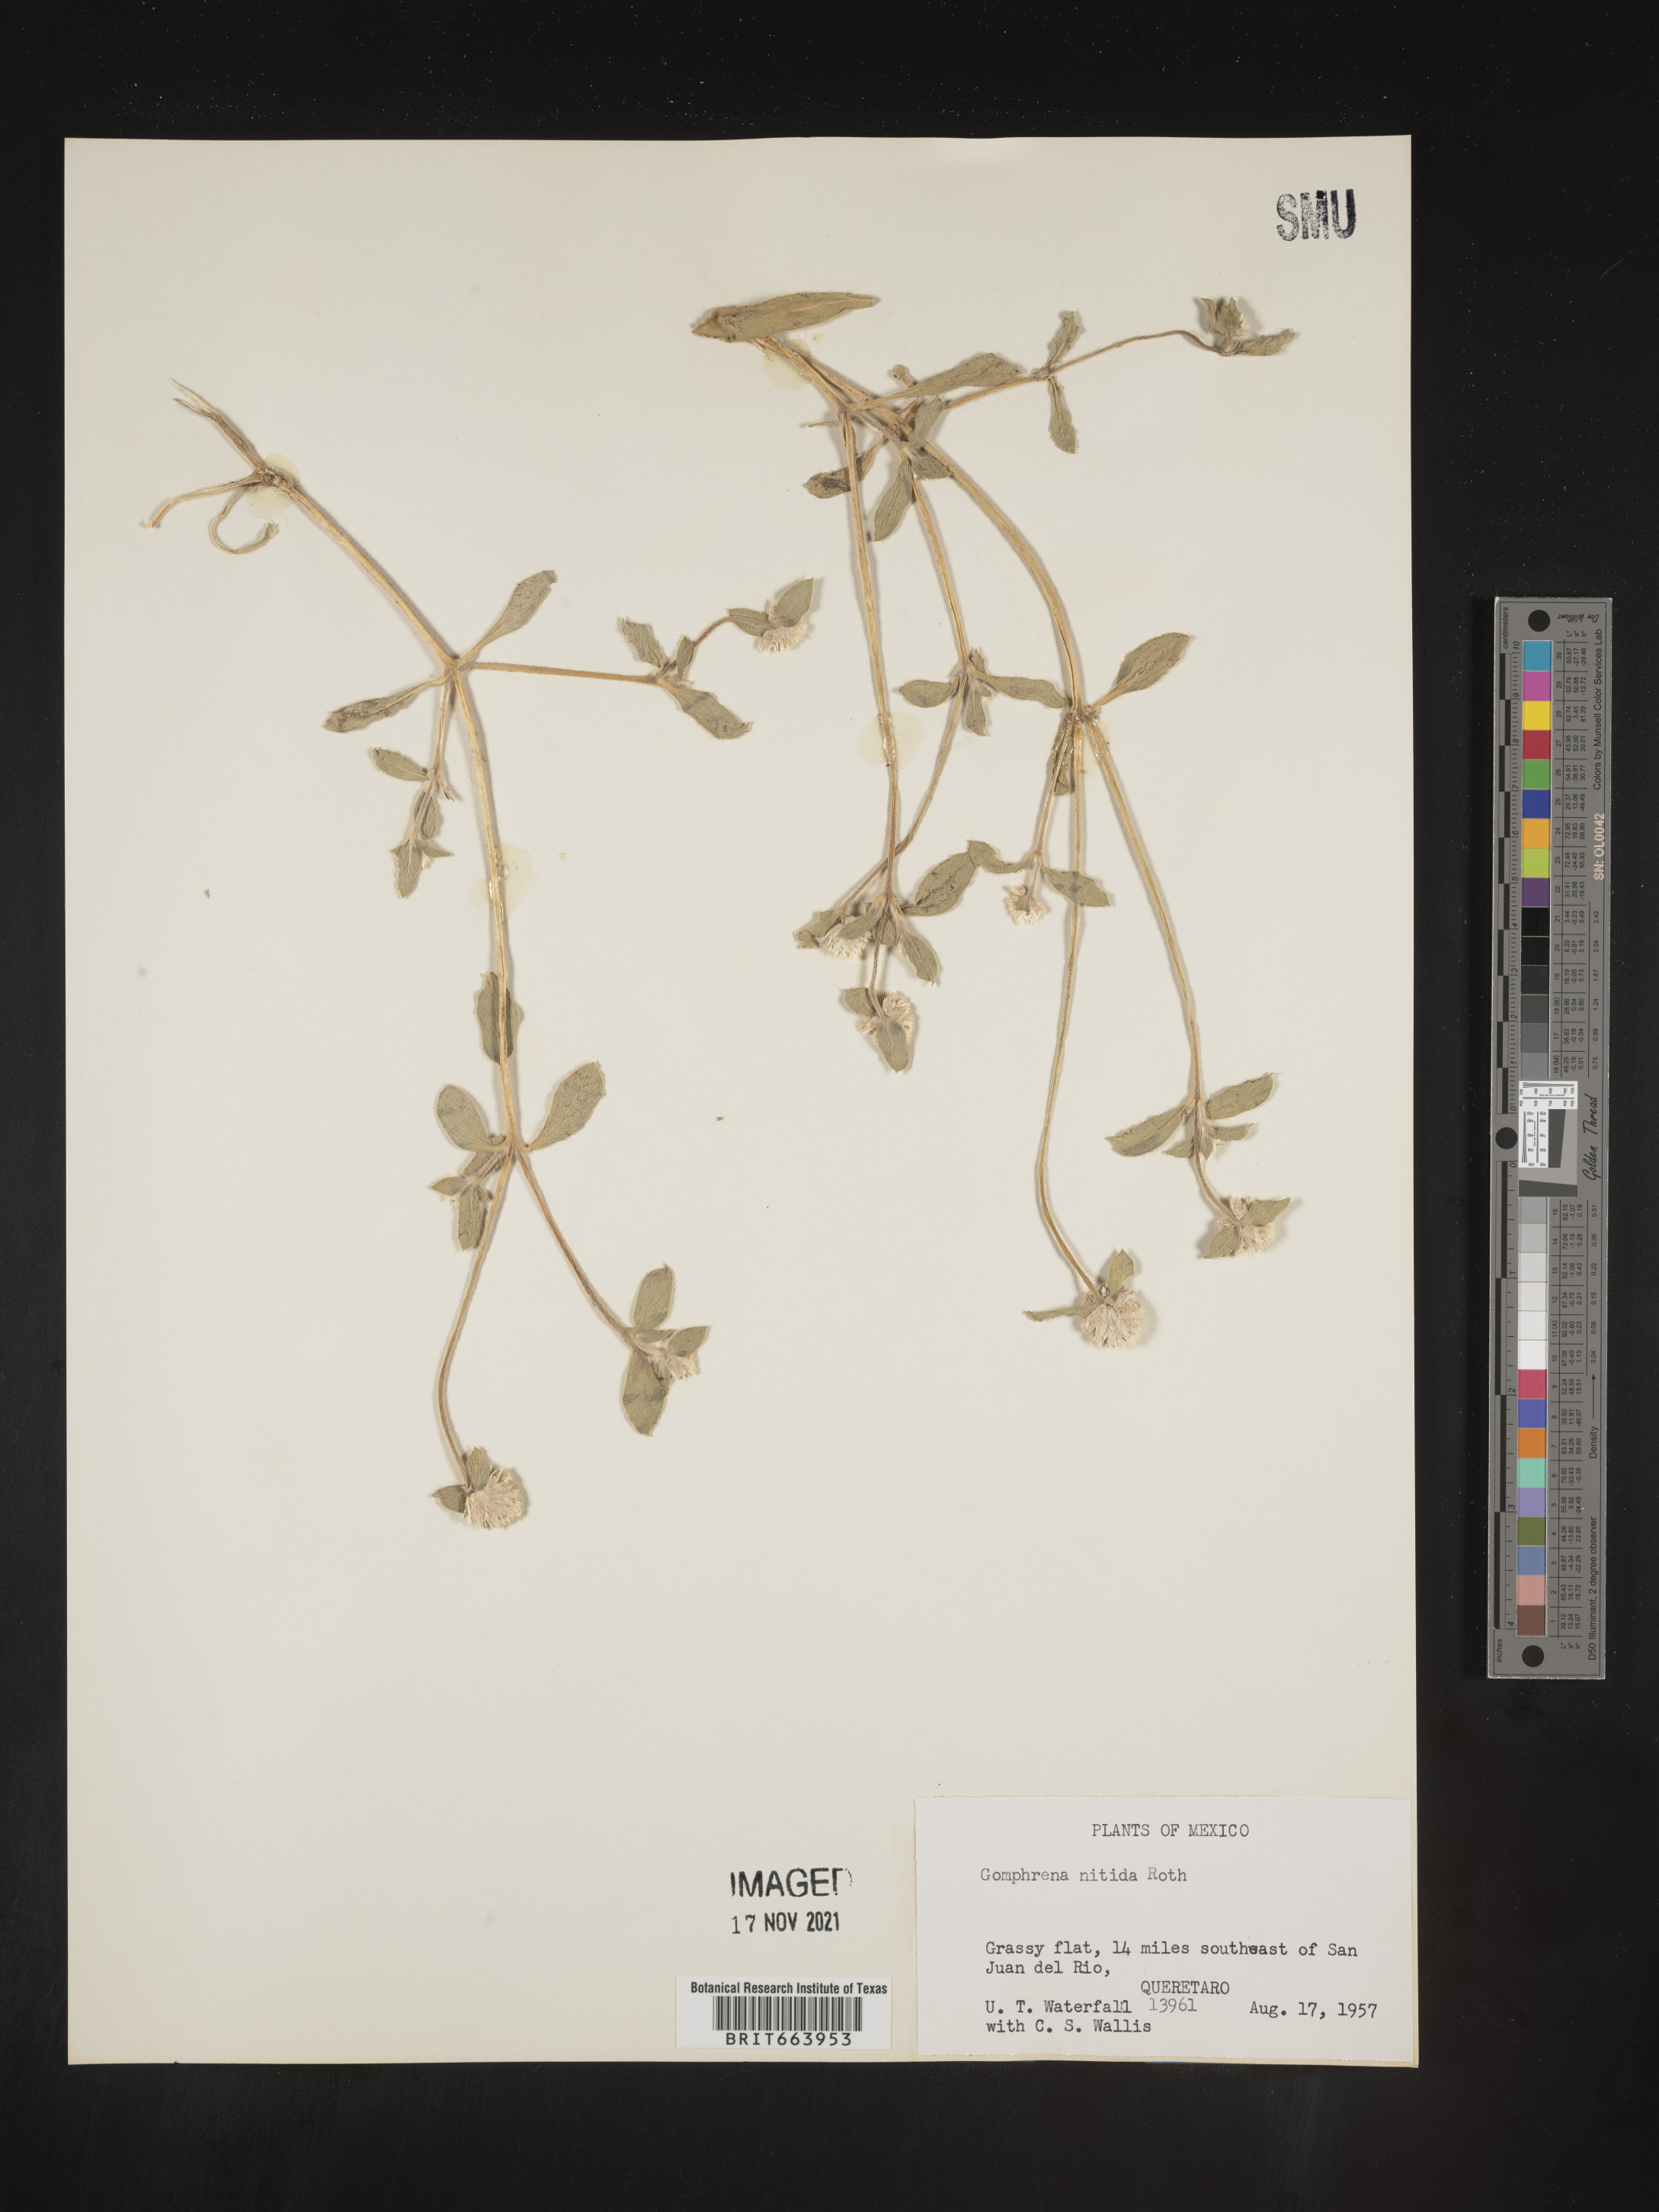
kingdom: Plantae
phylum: Tracheophyta
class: Magnoliopsida
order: Caryophyllales
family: Amaranthaceae
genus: Gomphrena
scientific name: Gomphrena
